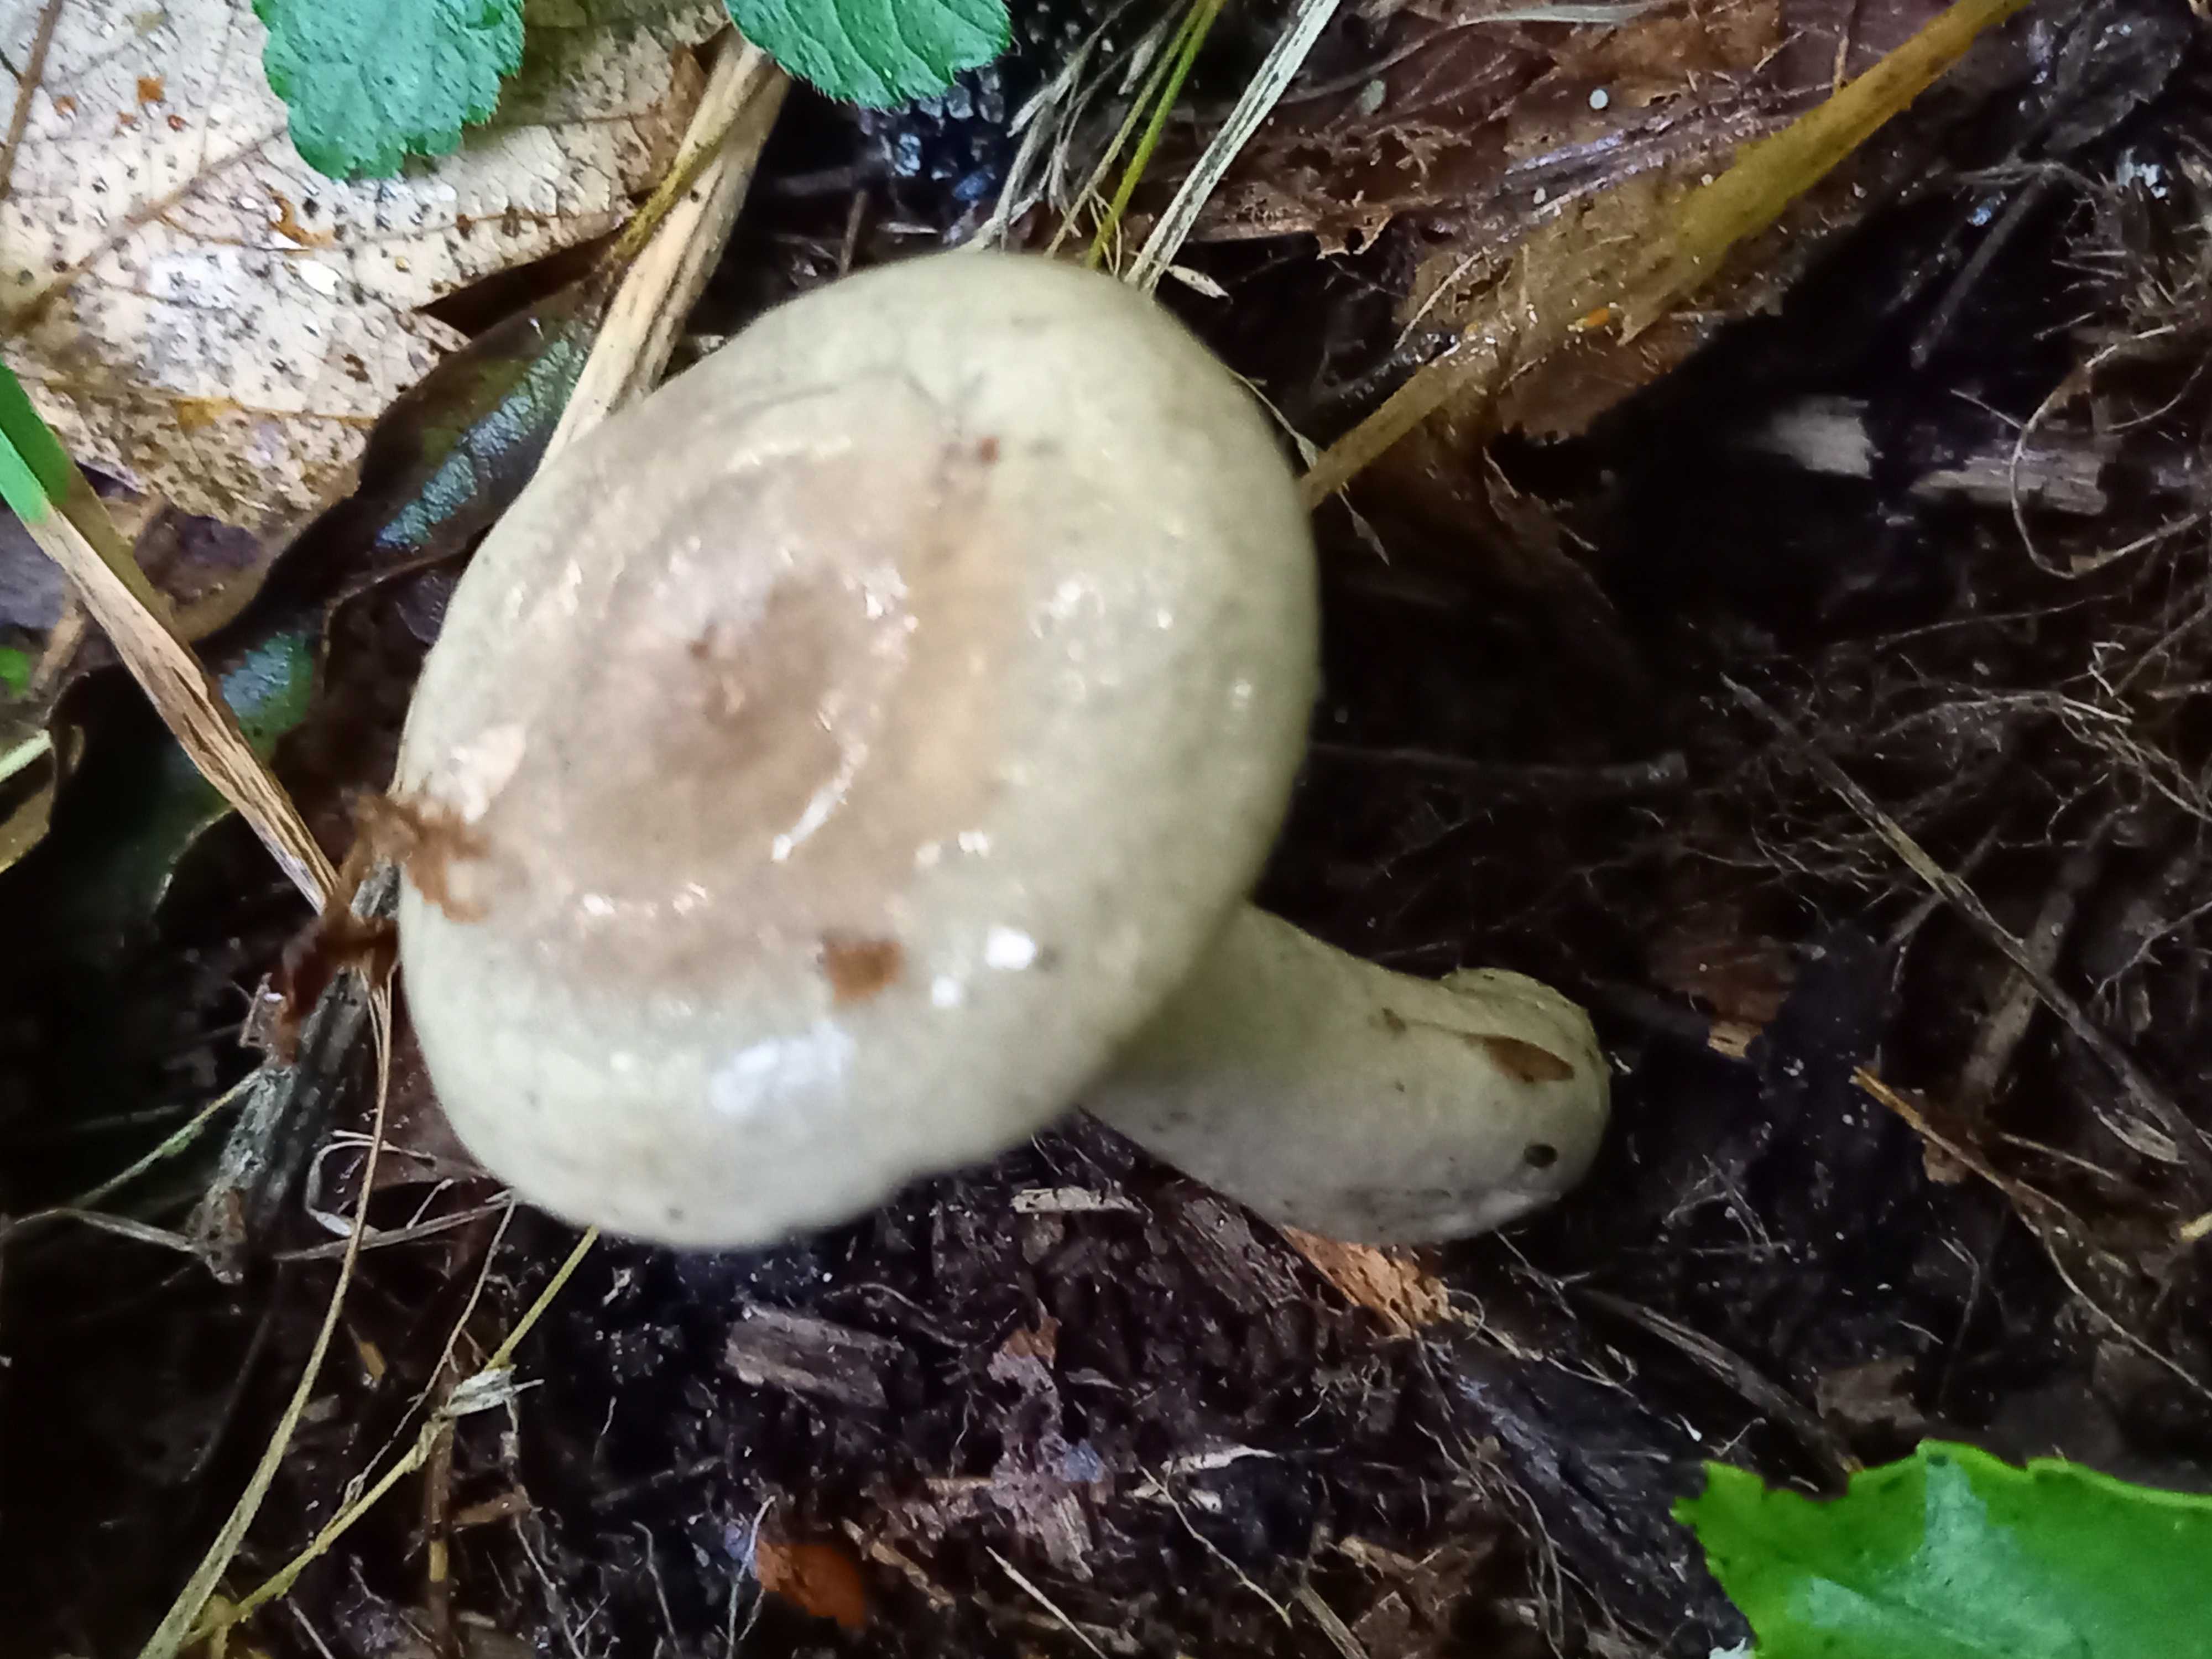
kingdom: Fungi
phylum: Basidiomycota
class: Agaricomycetes
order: Russulales
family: Russulaceae
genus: Lactarius
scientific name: Lactarius blennius
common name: dråbeplettet mælkehat
